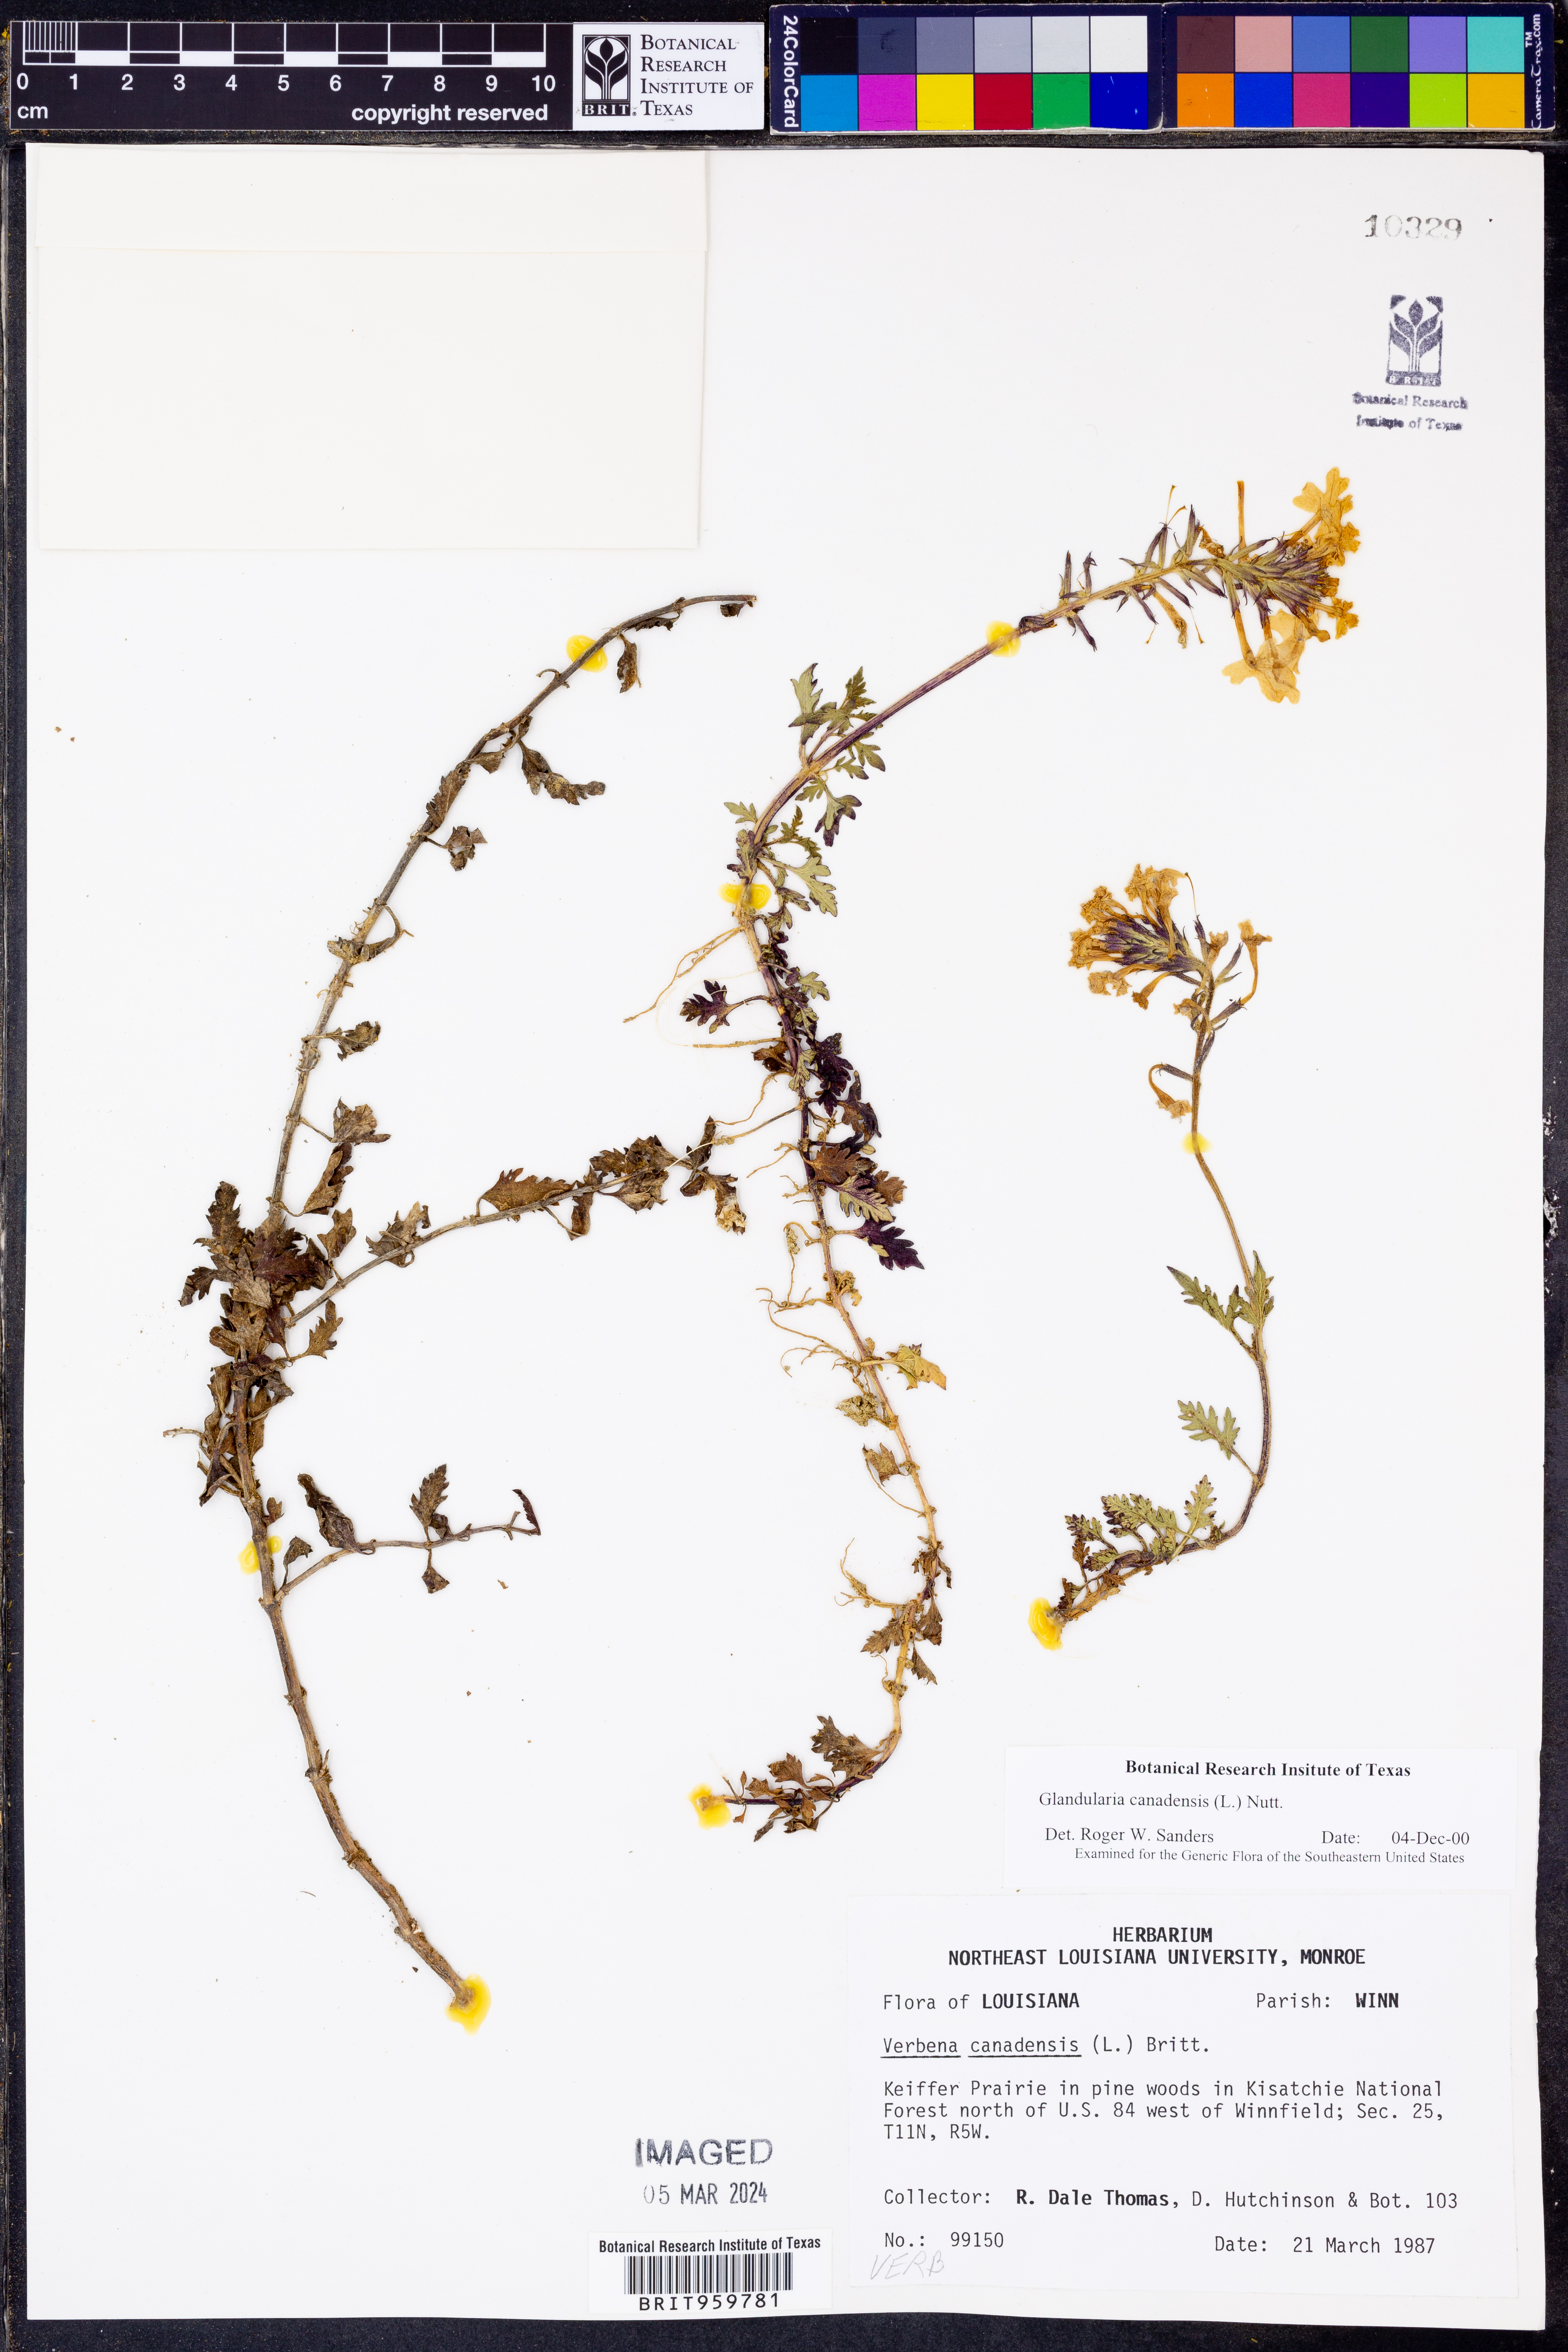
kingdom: Plantae
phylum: Tracheophyta
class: Magnoliopsida
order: Lamiales
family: Verbenaceae
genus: Verbena
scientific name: Verbena canadensis
